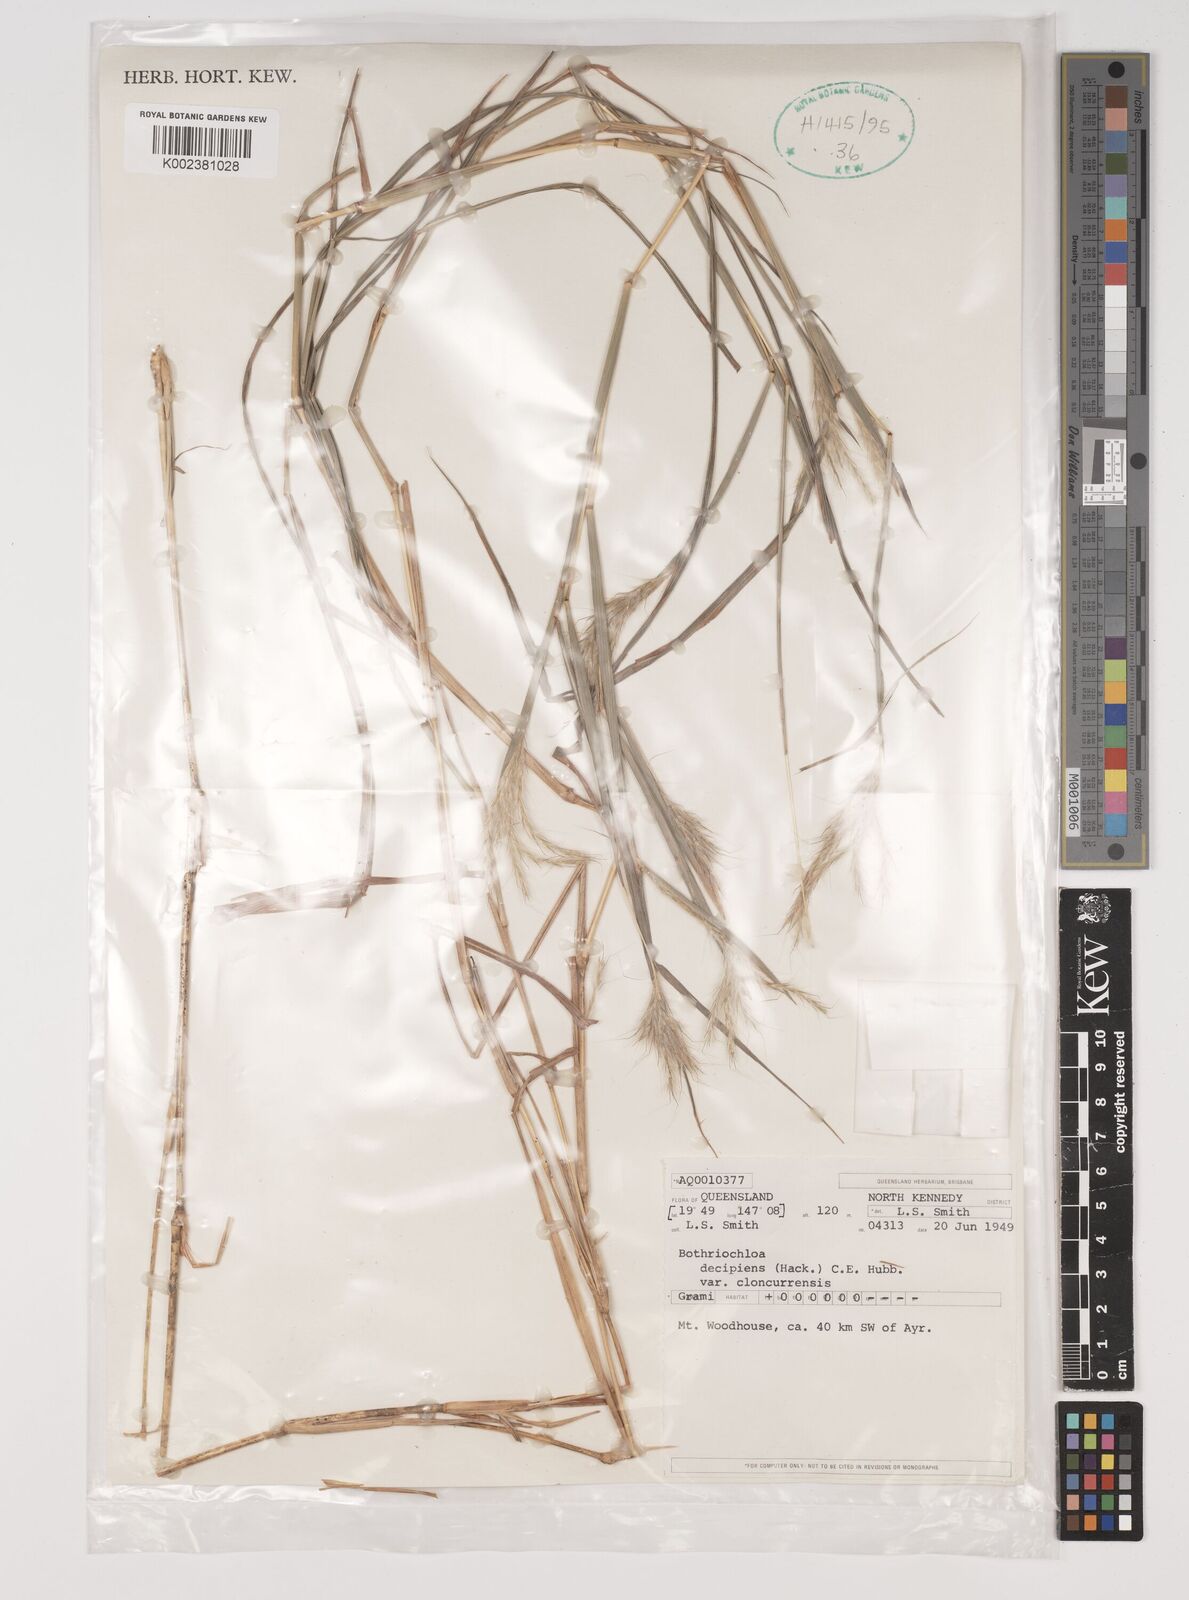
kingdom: Plantae
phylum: Tracheophyta
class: Liliopsida
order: Poales
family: Poaceae
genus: Bothriochloa
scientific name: Bothriochloa decipiens
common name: Pitted-bluegrass
